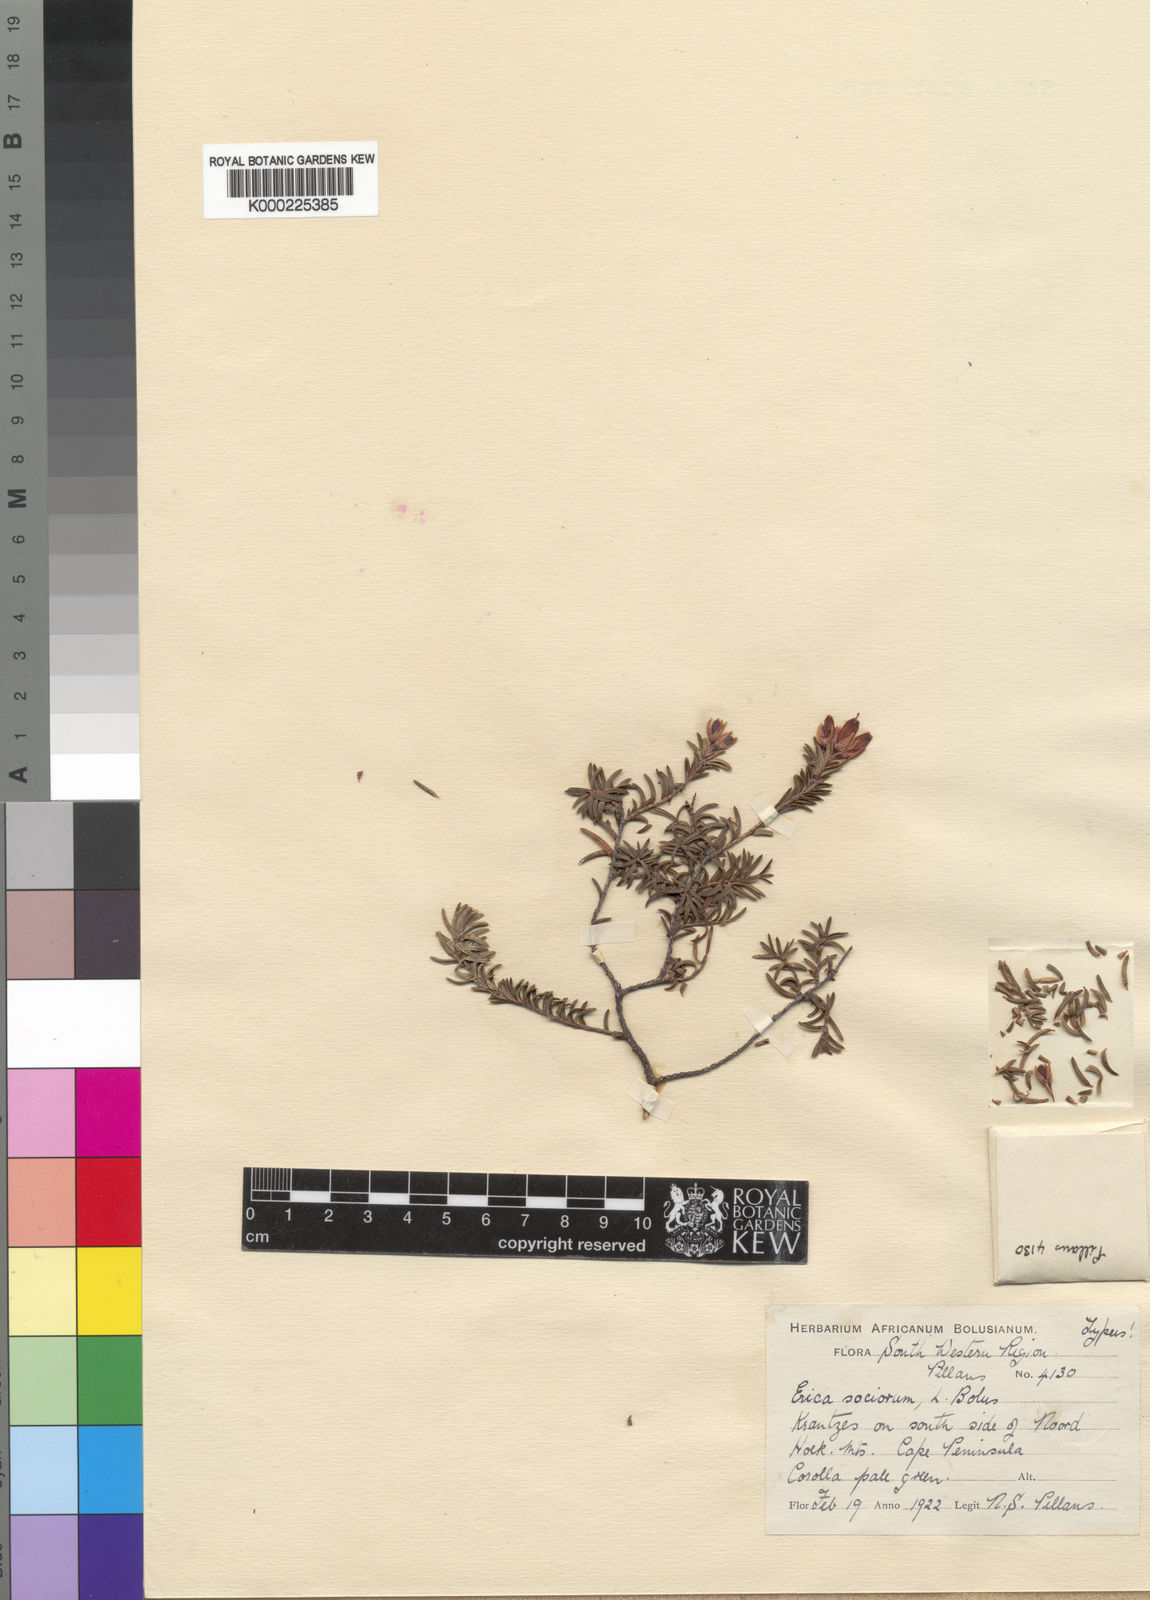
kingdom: Plantae
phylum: Tracheophyta
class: Magnoliopsida
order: Ericales
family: Ericaceae
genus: Erica
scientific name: Erica sociorum
